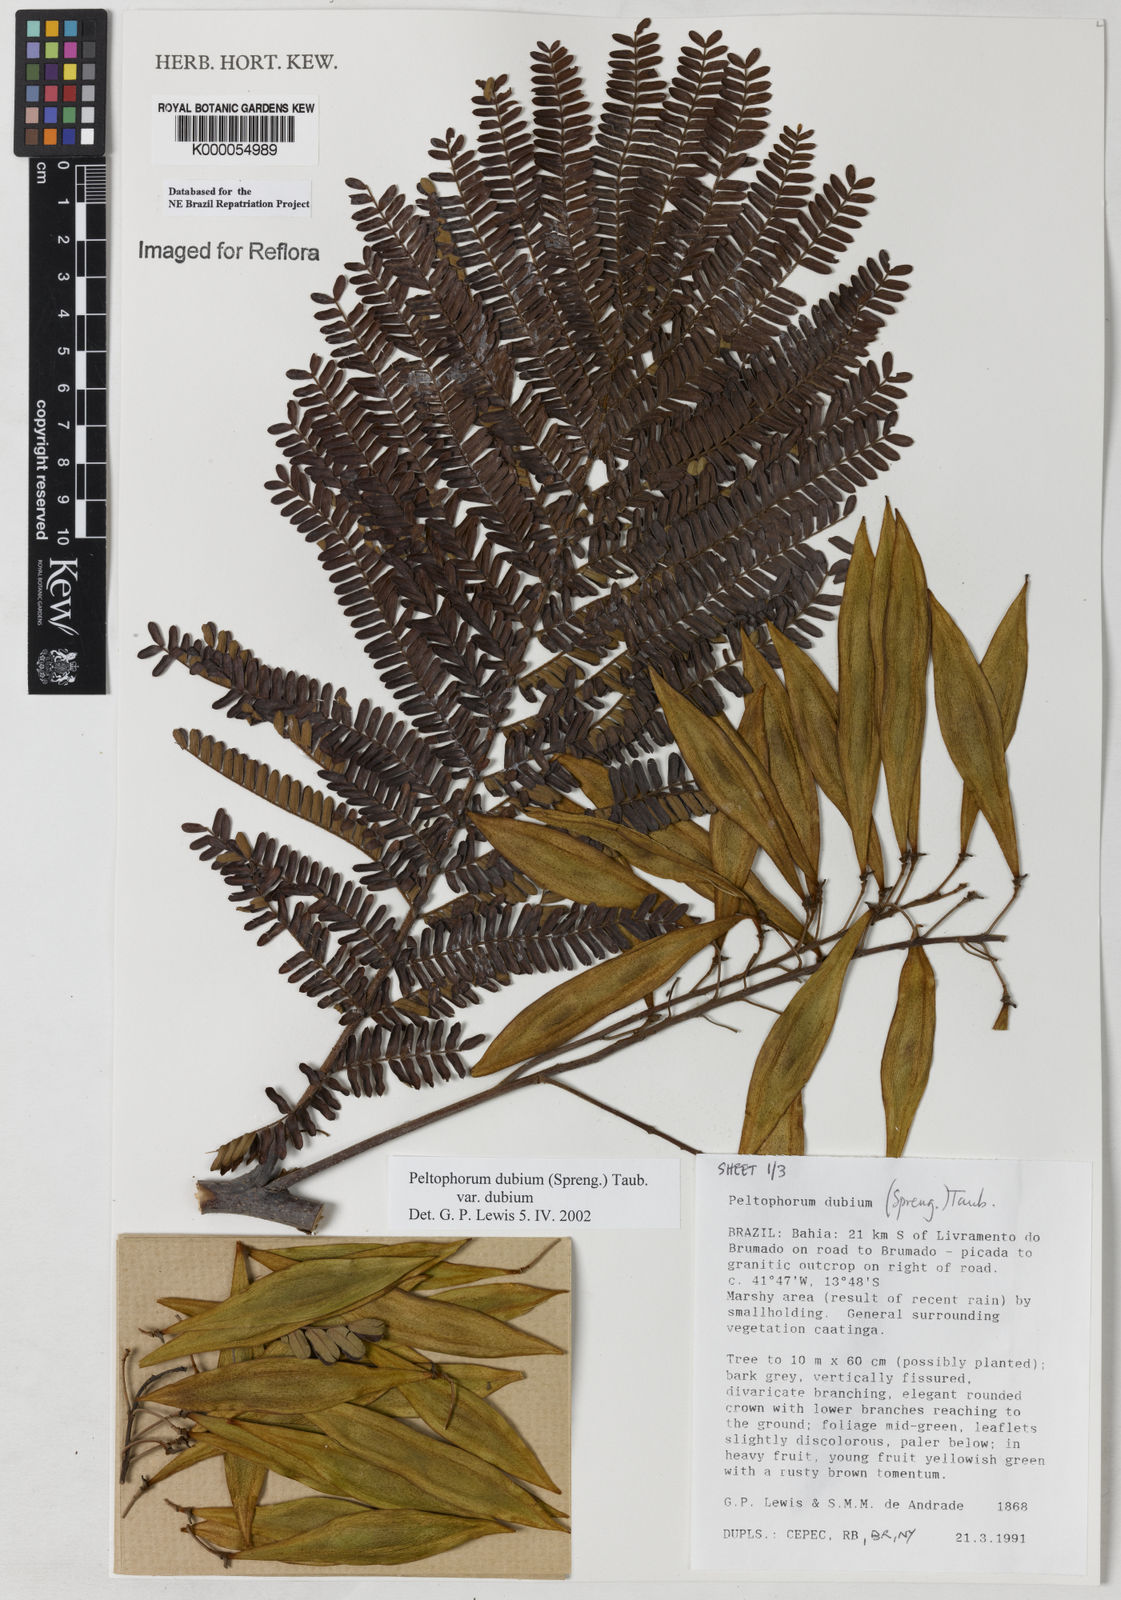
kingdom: Plantae
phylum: Tracheophyta
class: Magnoliopsida
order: Fabales
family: Fabaceae
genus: Peltophorum
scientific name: Peltophorum dubium
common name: Horsebush
